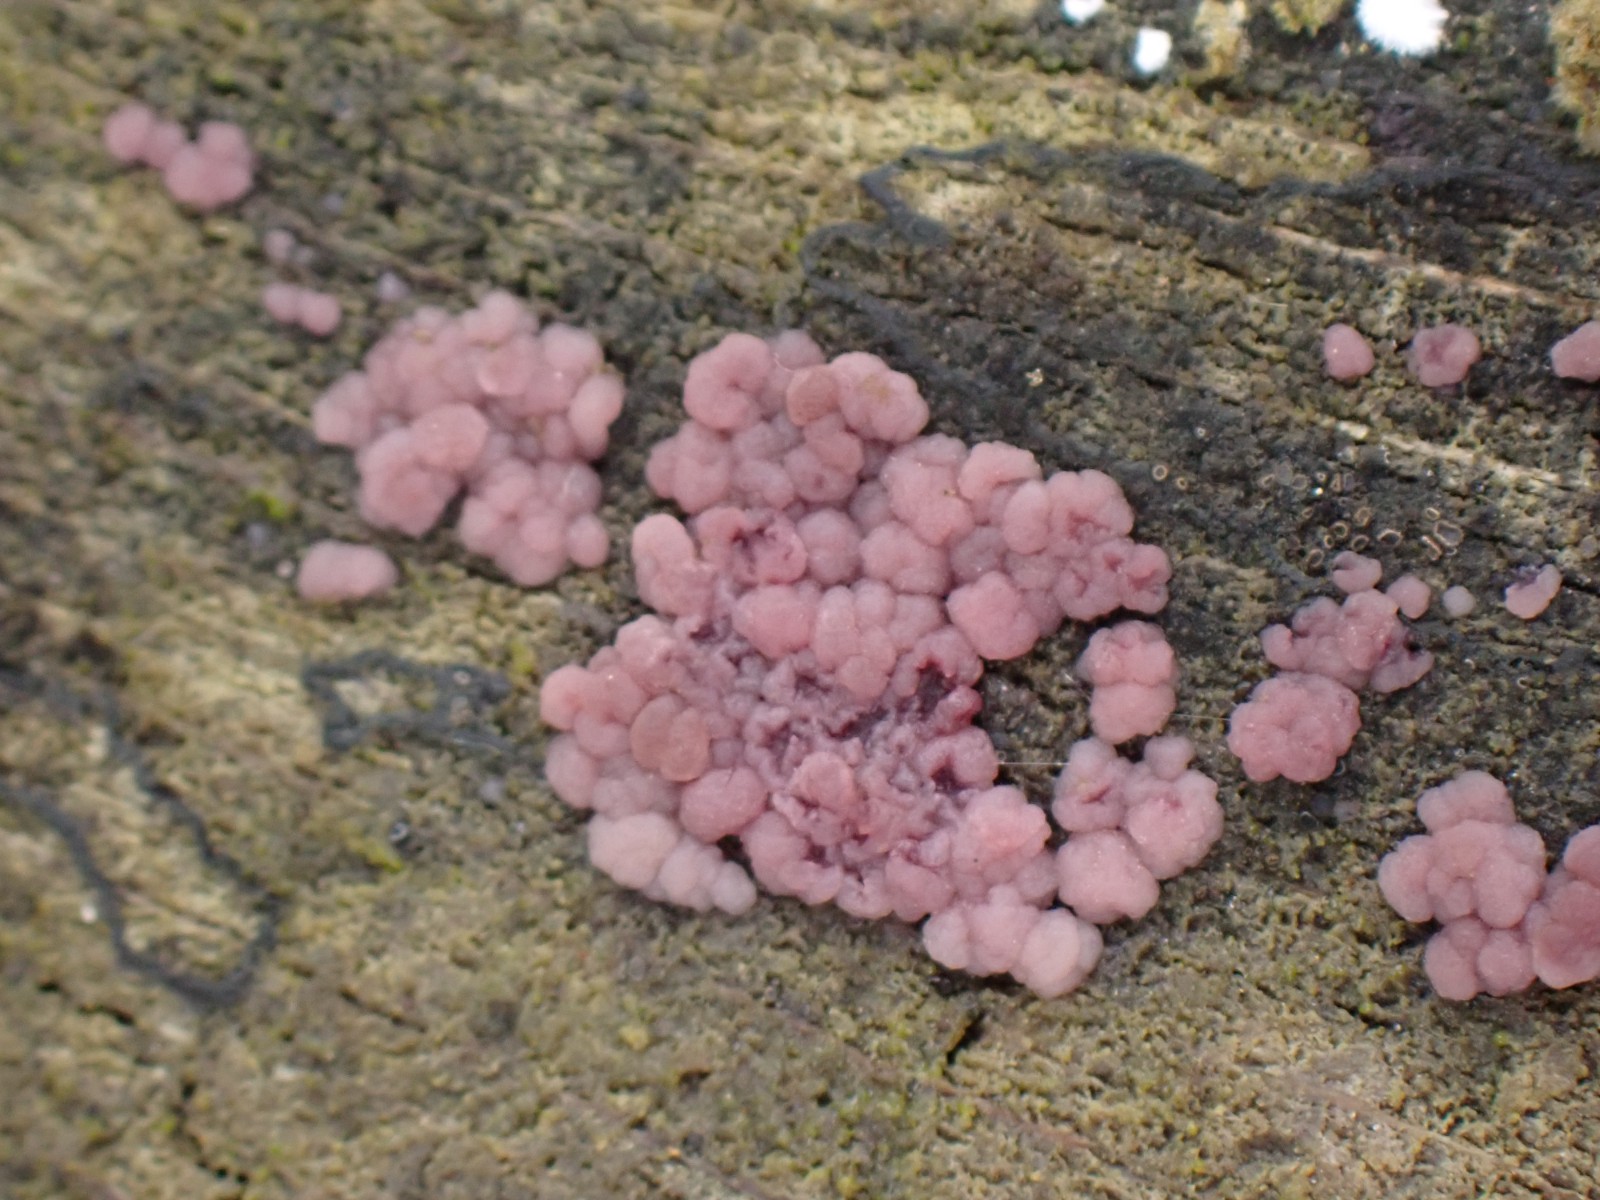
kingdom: Fungi
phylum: Ascomycota
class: Leotiomycetes
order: Helotiales
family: Gelatinodiscaceae
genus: Ascocoryne
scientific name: Ascocoryne
